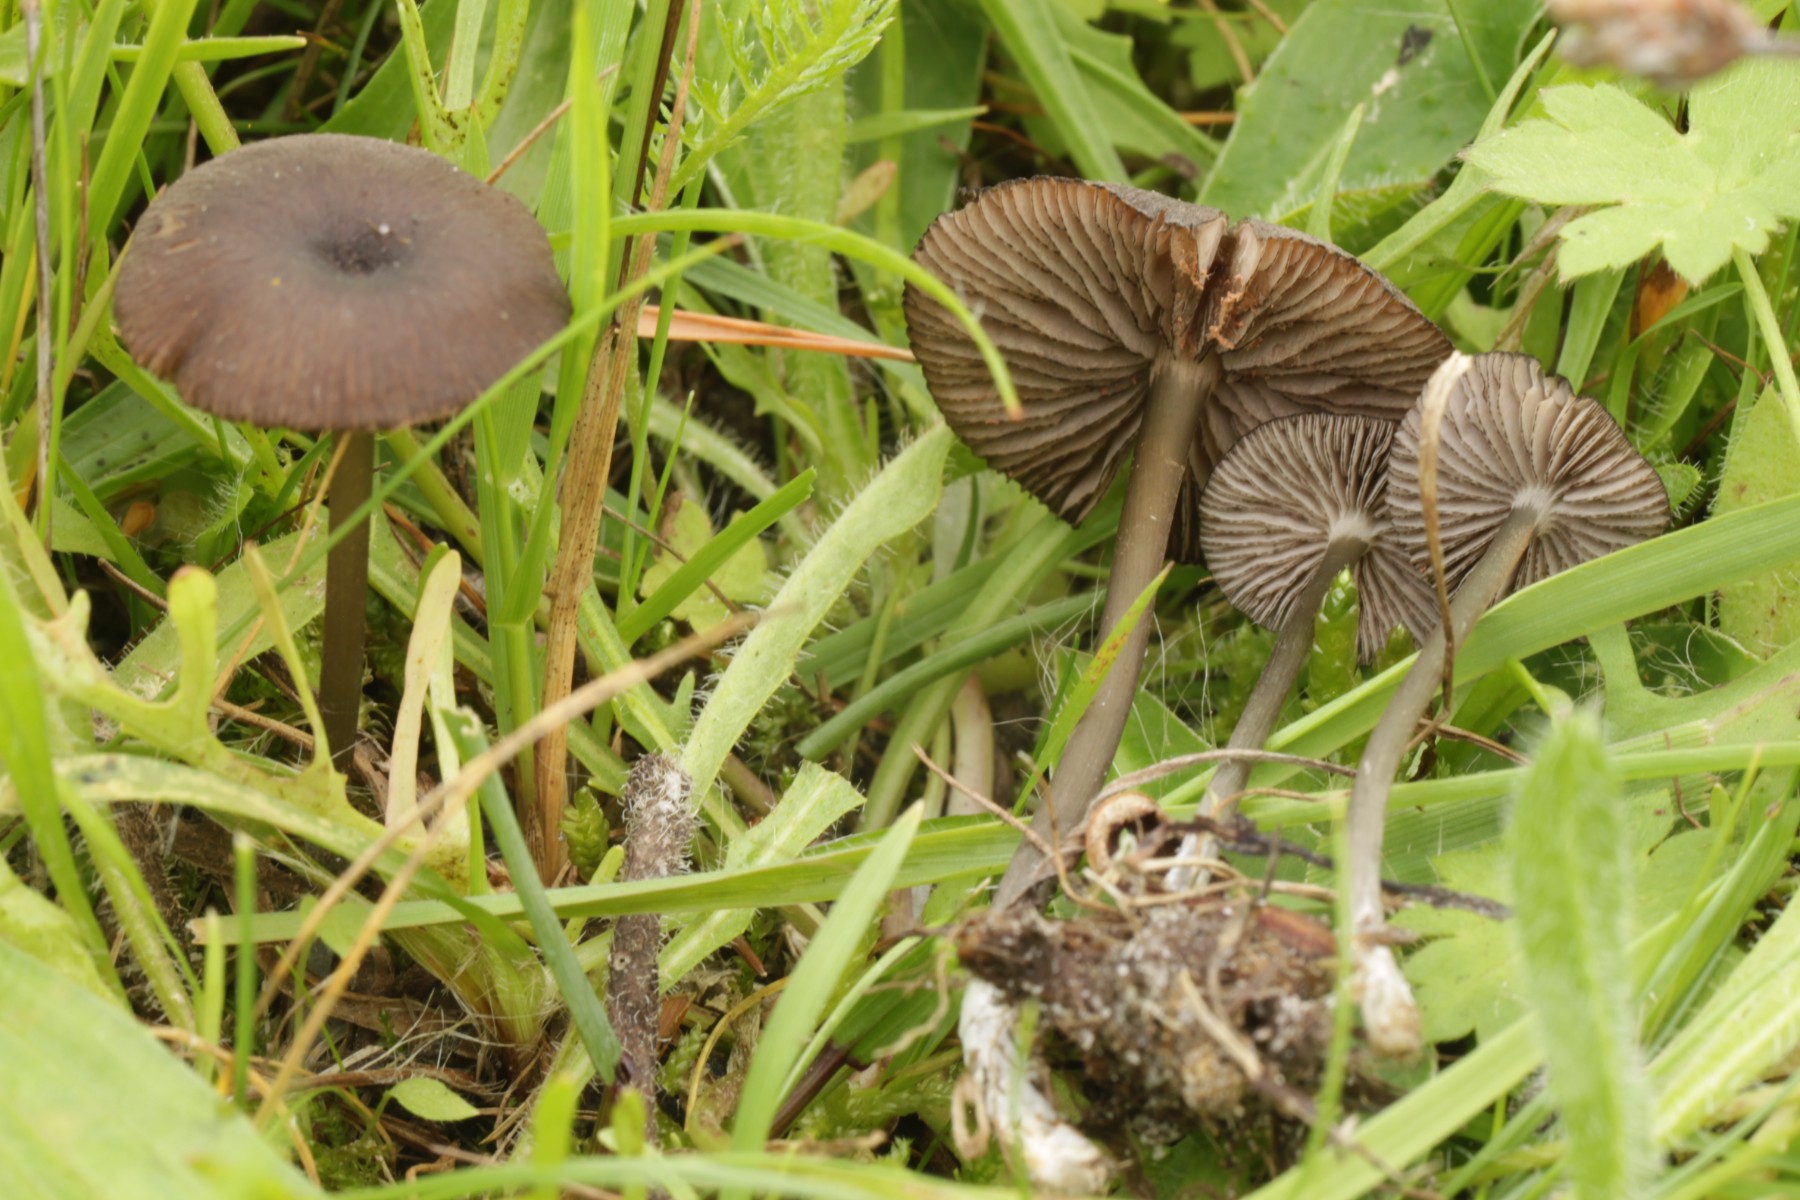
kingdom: Fungi
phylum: Basidiomycota
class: Agaricomycetes
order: Agaricales
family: Entolomataceae
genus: Entoloma
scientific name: Entoloma
